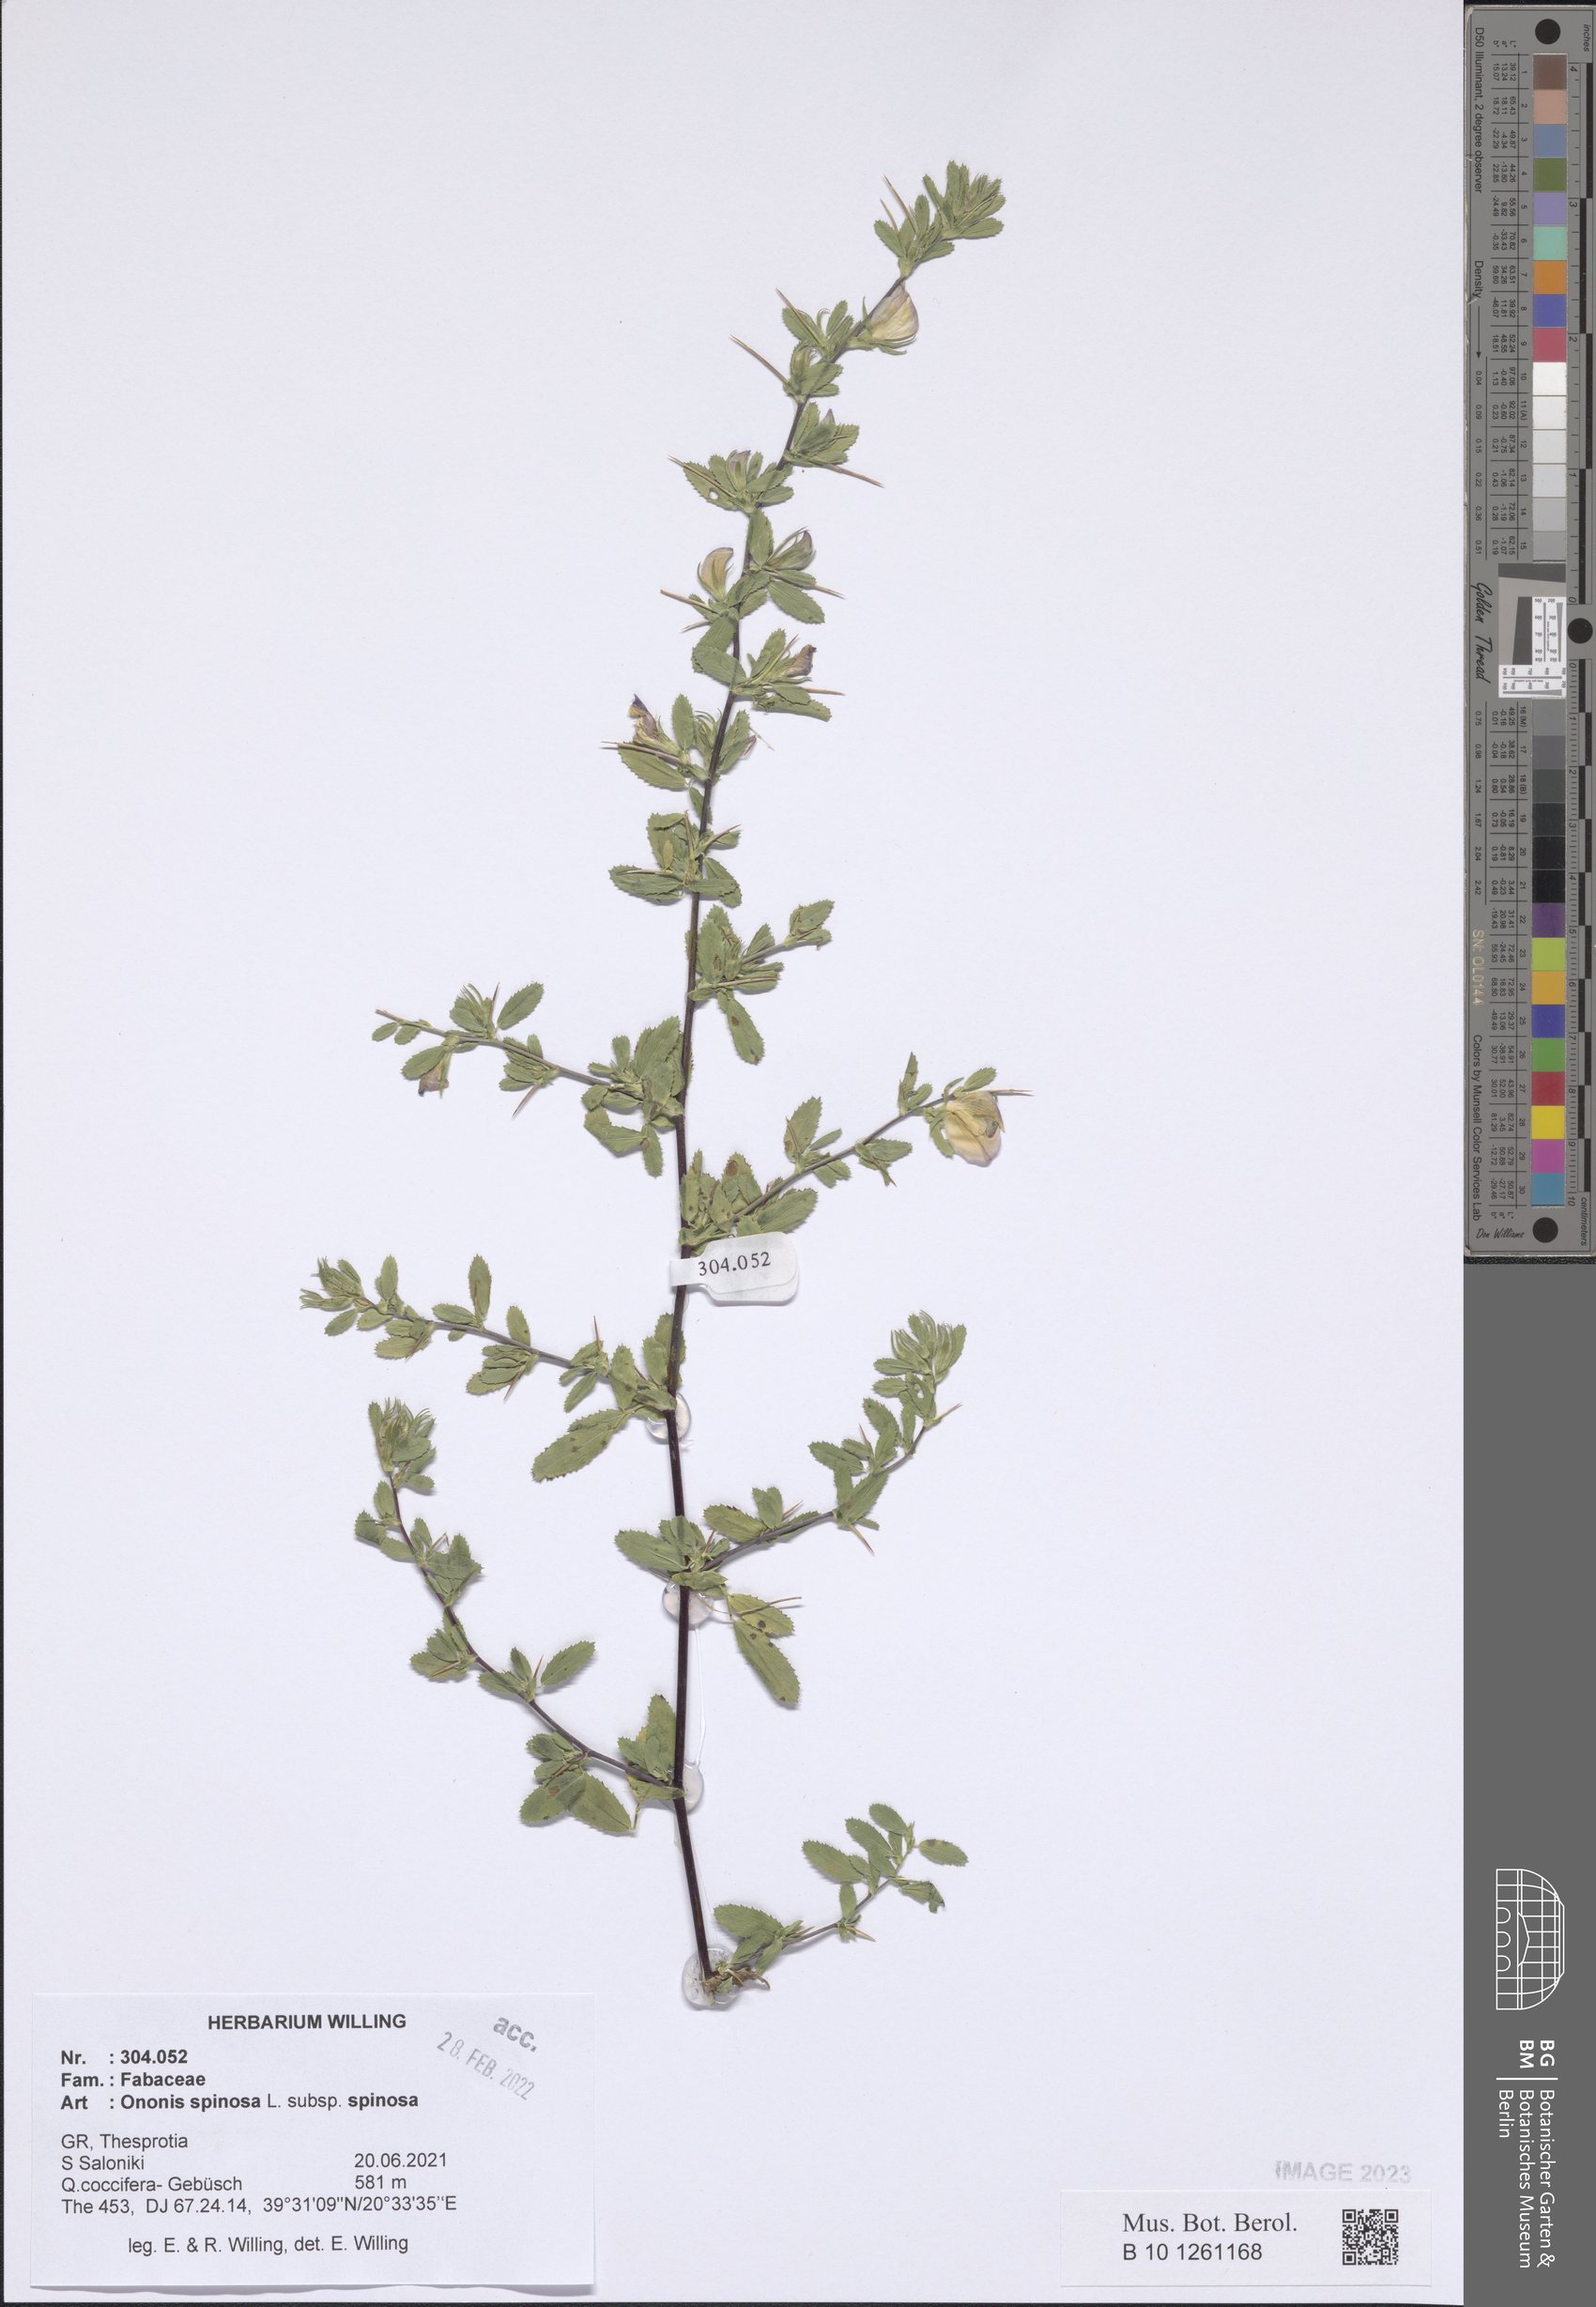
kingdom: Plantae
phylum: Tracheophyta
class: Magnoliopsida
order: Fabales
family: Fabaceae
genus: Ononis
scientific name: Ononis spinosa
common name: Spiny restharrow
